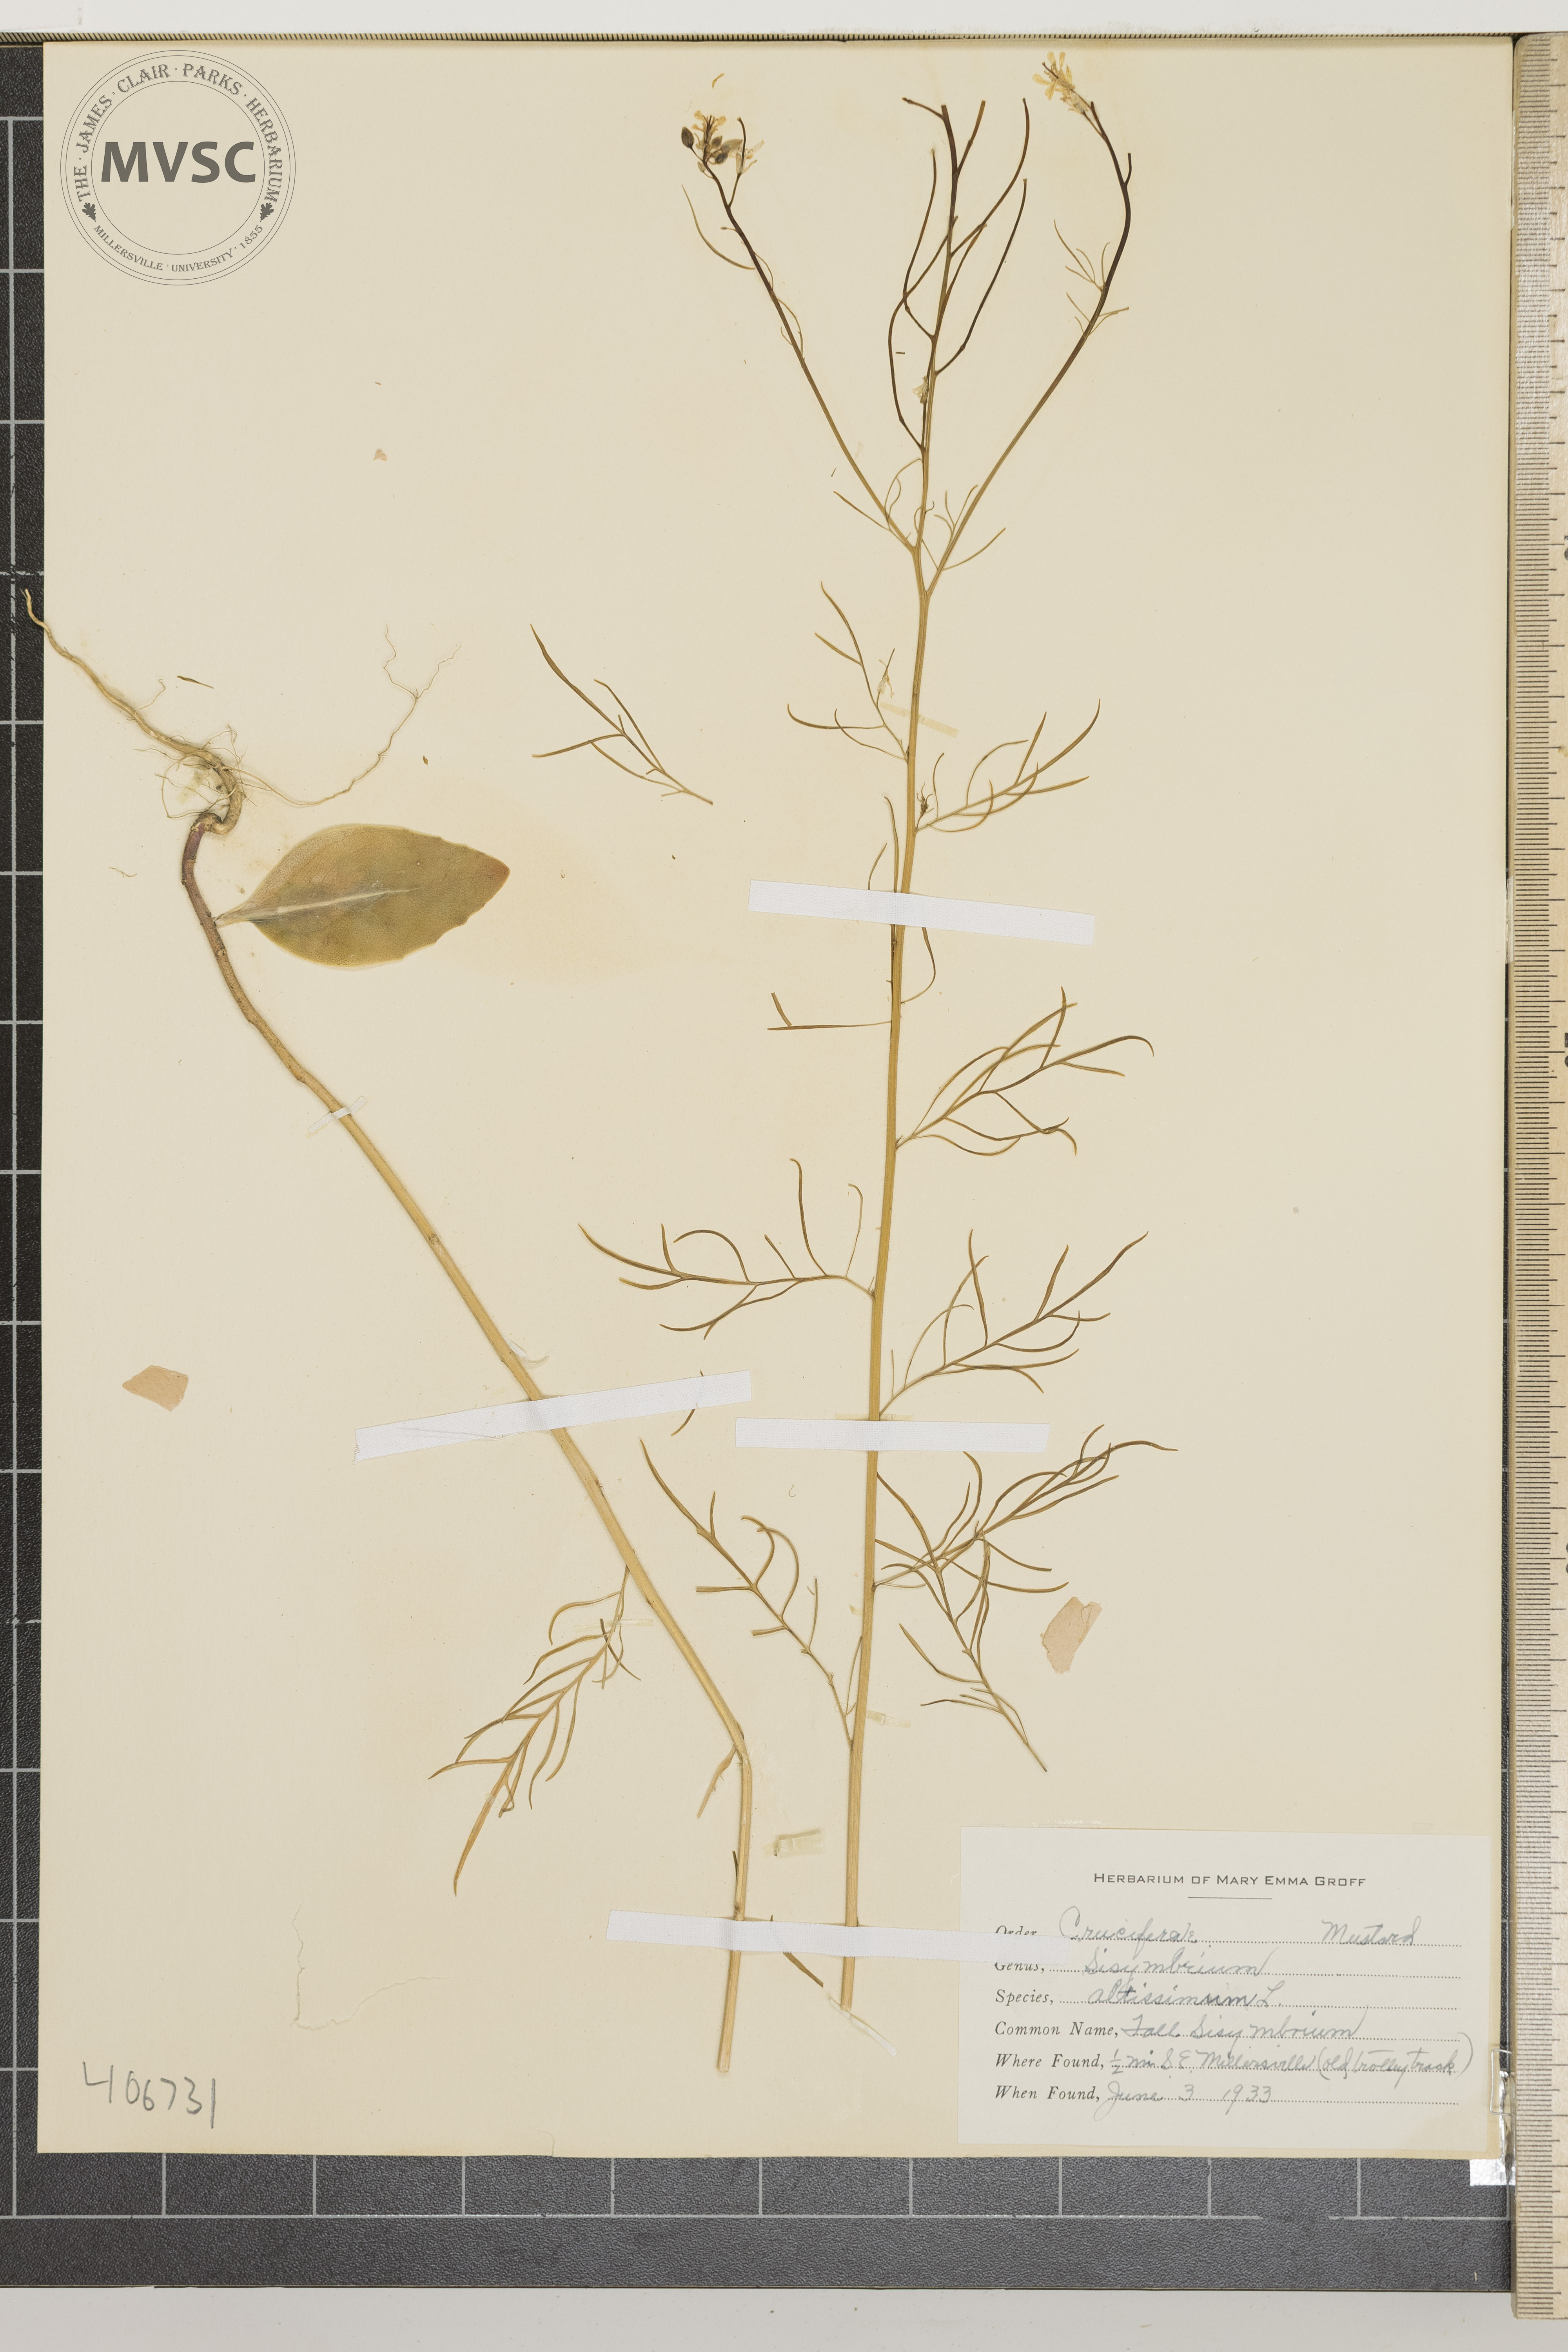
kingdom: Plantae
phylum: Tracheophyta
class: Magnoliopsida
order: Brassicales
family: Brassicaceae
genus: Sisymbrium
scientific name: Sisymbrium altissimum
